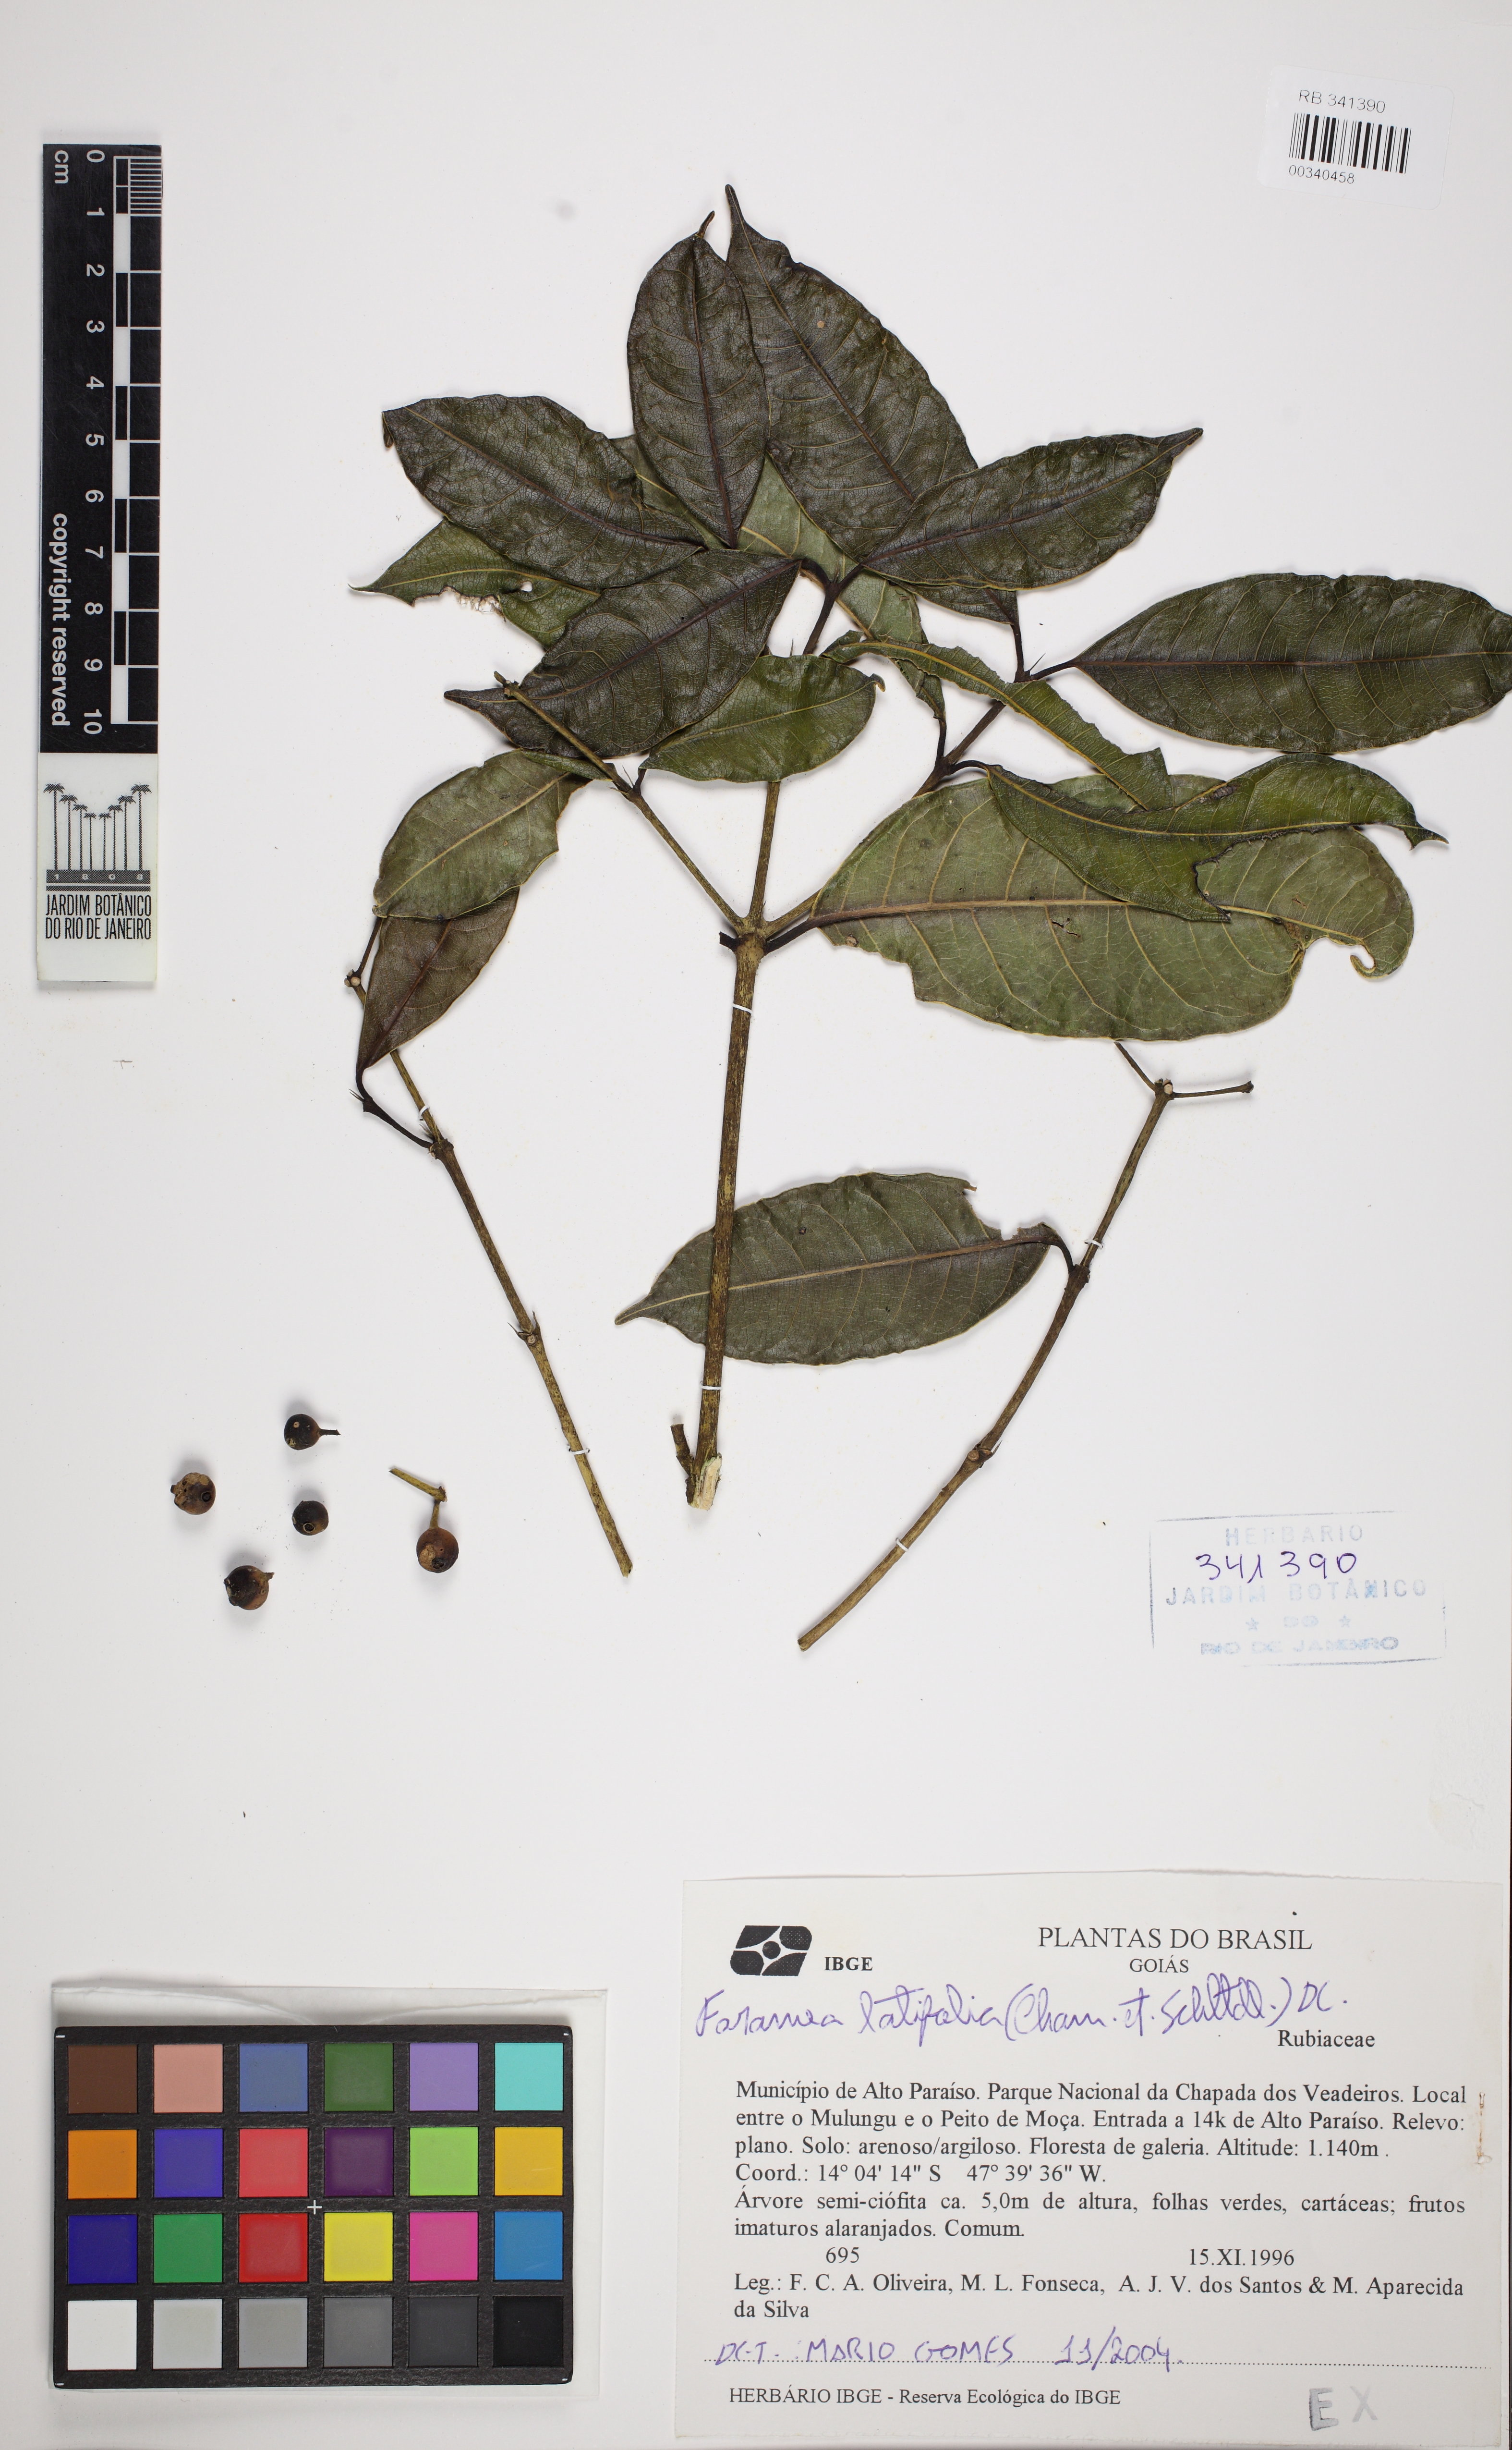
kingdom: Plantae
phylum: Tracheophyta
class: Magnoliopsida
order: Gentianales
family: Rubiaceae
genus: Faramea
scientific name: Faramea latifolia
